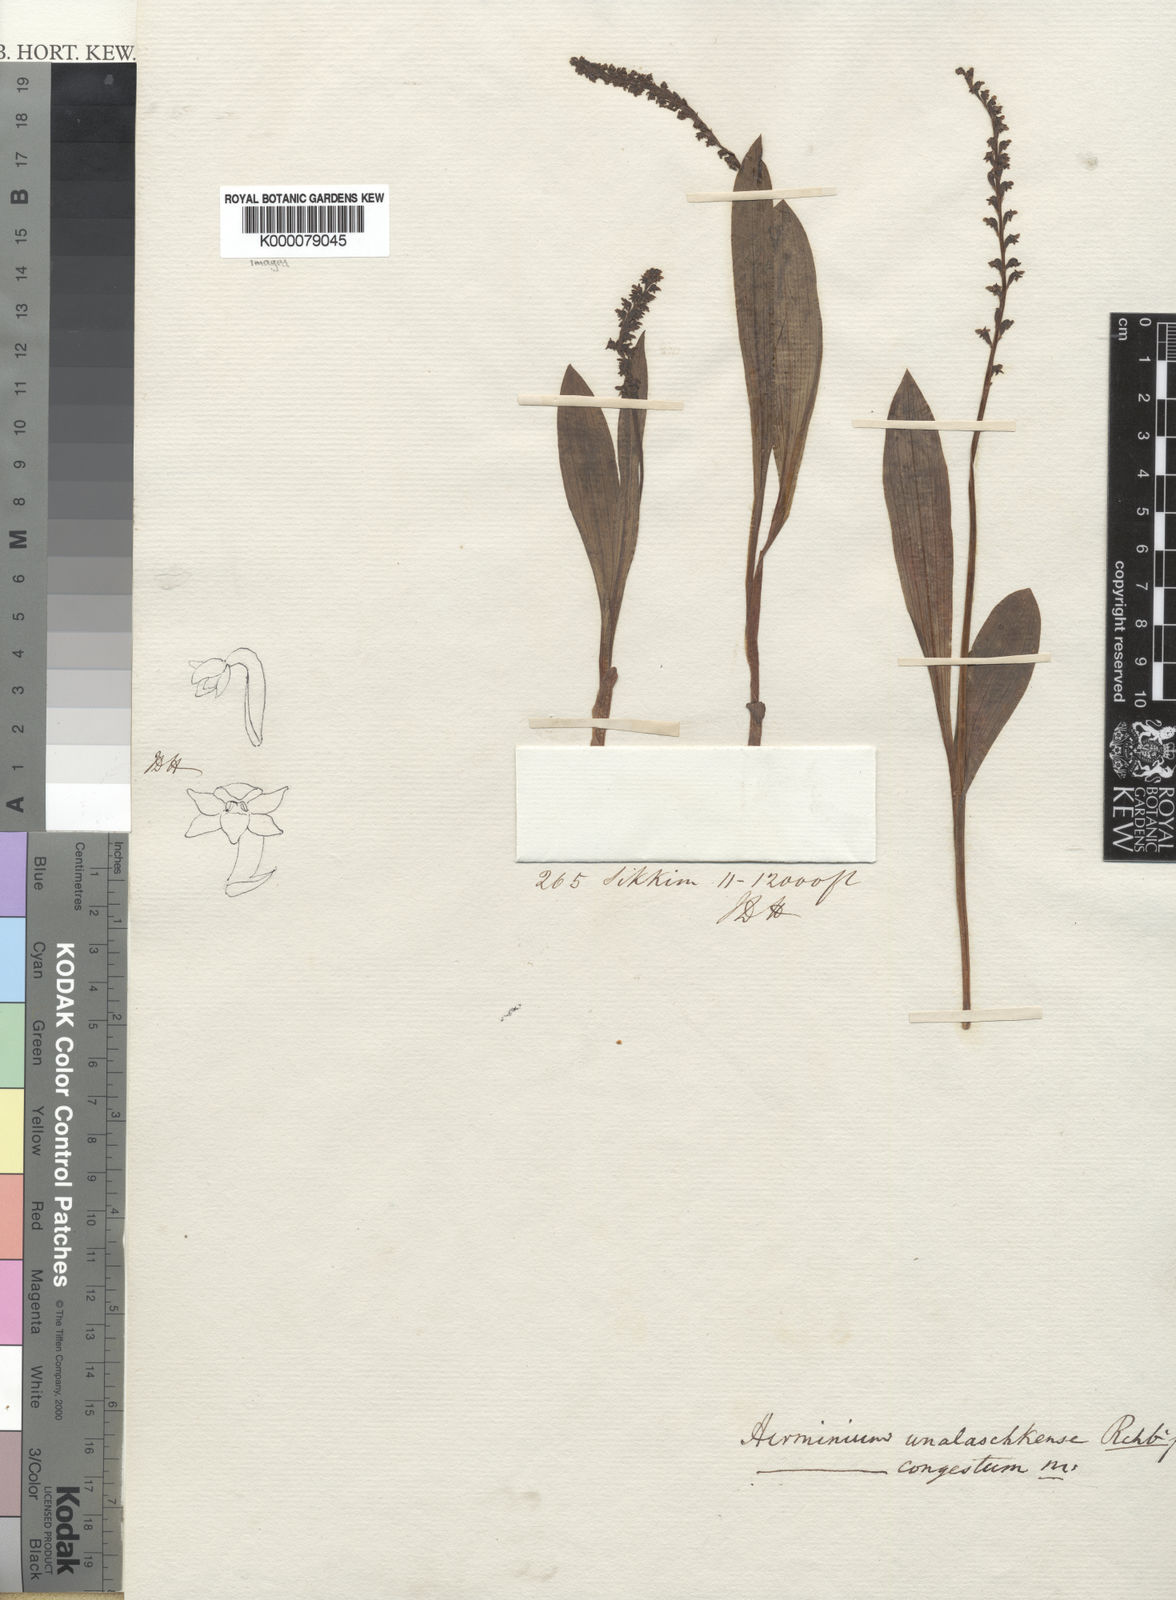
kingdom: Plantae
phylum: Tracheophyta
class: Liliopsida
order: Asparagales
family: Orchidaceae
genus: Platanthera
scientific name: Platanthera
